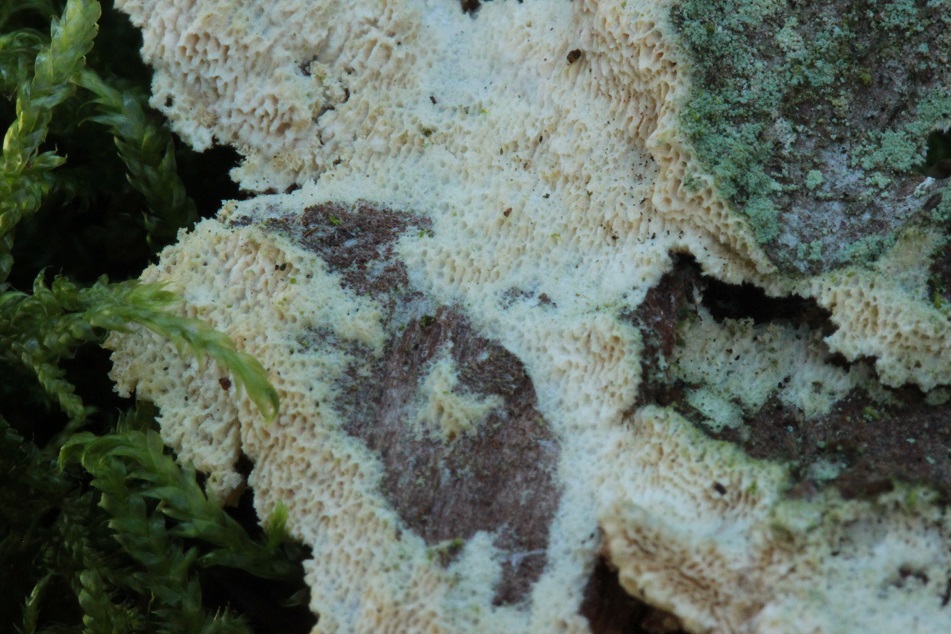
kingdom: Fungi
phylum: Basidiomycota
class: Agaricomycetes
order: Hymenochaetales
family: Schizoporaceae
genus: Xylodon
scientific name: Xylodon subtropicus
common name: labyrint-tandsvamp
